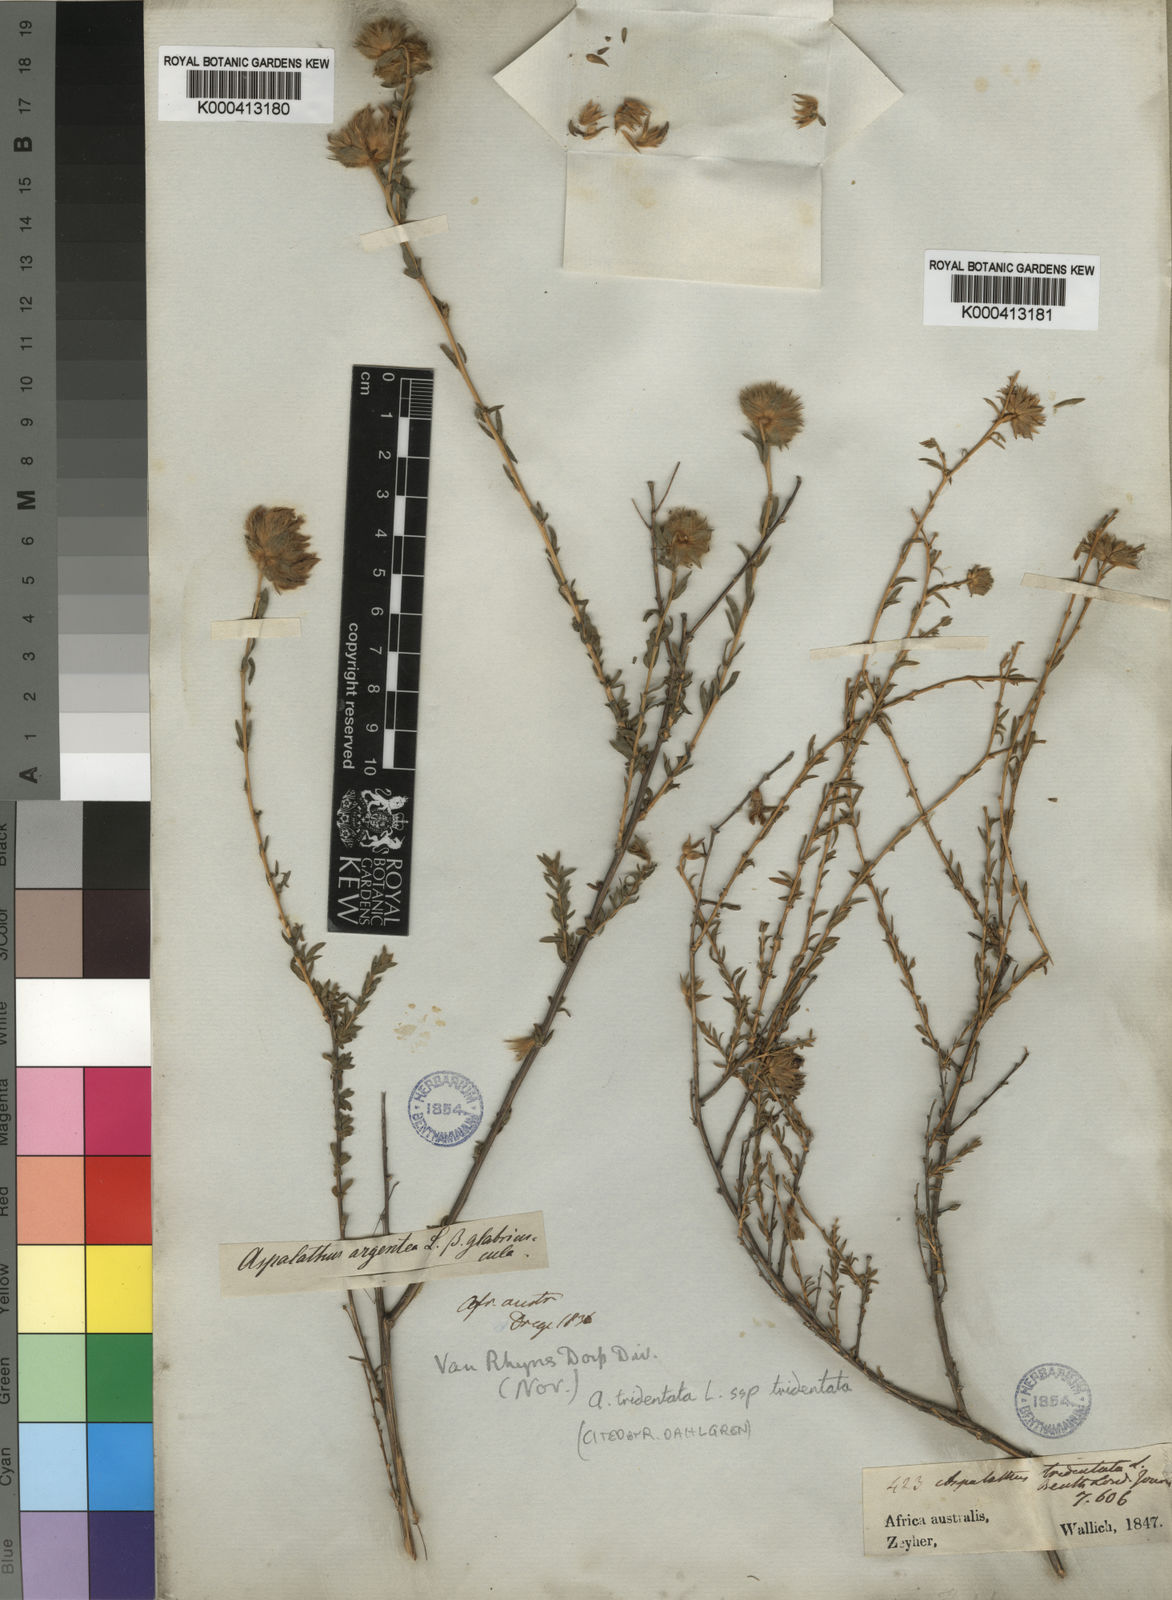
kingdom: Plantae
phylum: Tracheophyta
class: Magnoliopsida
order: Fabales
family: Fabaceae
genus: Aspalathus
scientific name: Aspalathus tridentata
